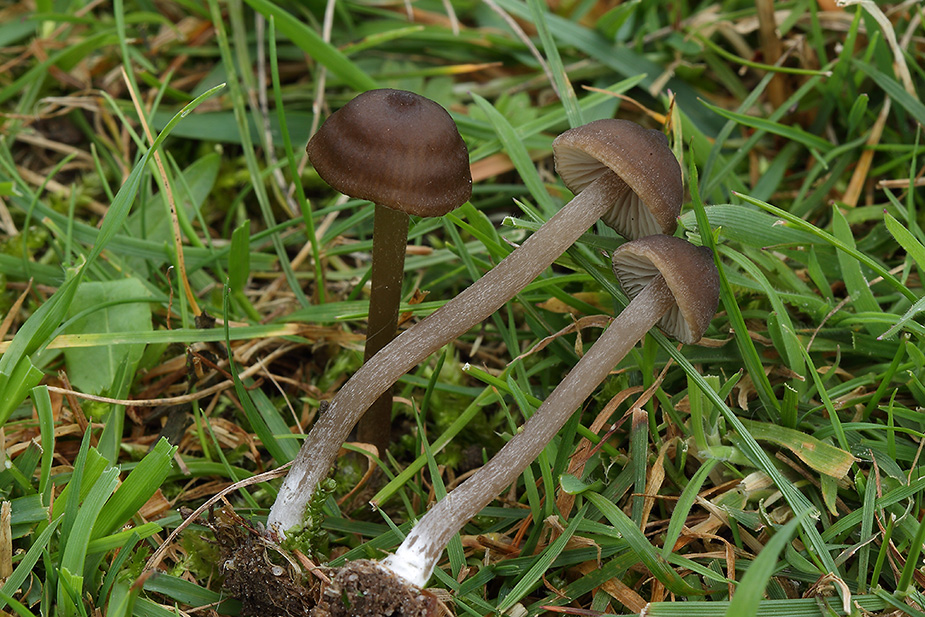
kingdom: Fungi
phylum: Basidiomycota
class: Agaricomycetes
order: Agaricales
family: Entolomataceae
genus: Entoloma
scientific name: Entoloma clandestinum
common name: tykbladet rødblad
